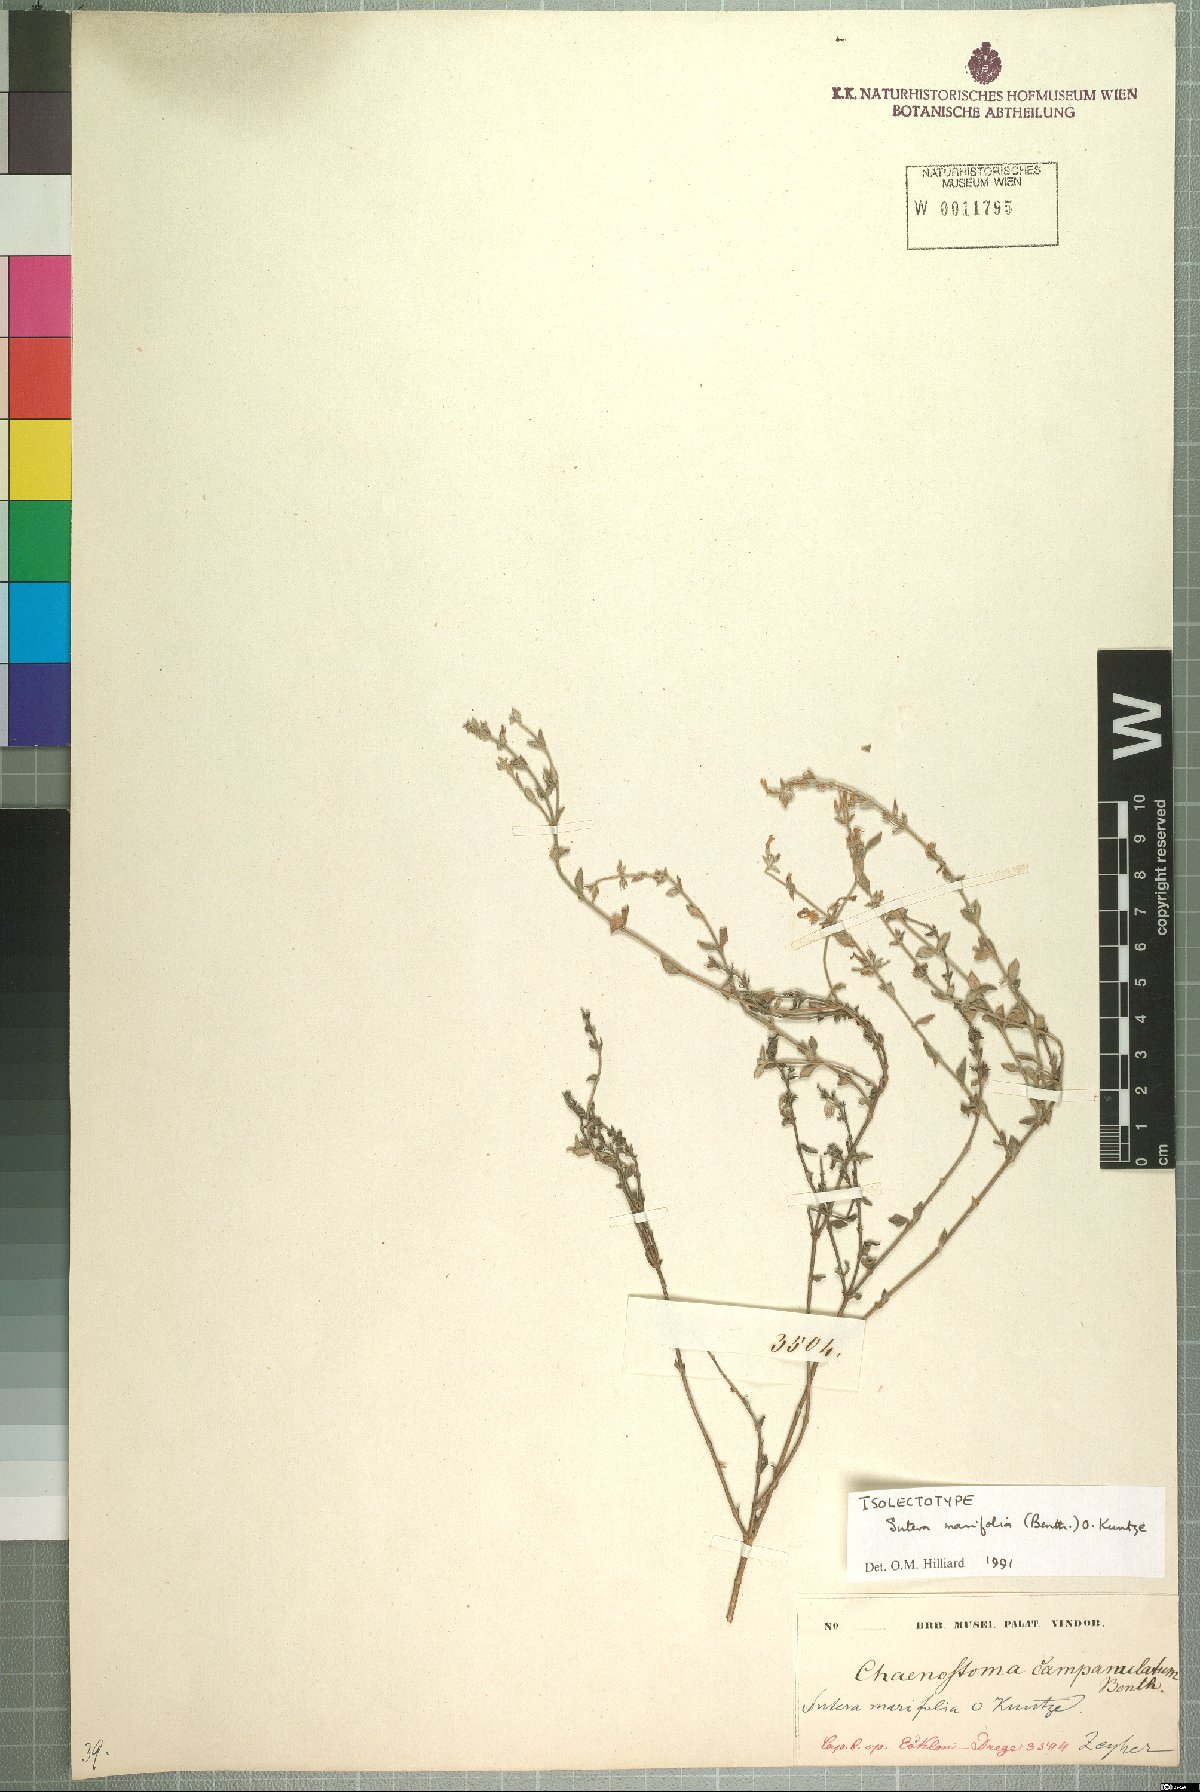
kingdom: Plantae
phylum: Tracheophyta
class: Magnoliopsida
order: Lamiales
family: Scrophulariaceae
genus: Chaenostoma
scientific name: Chaenostoma marifolium
